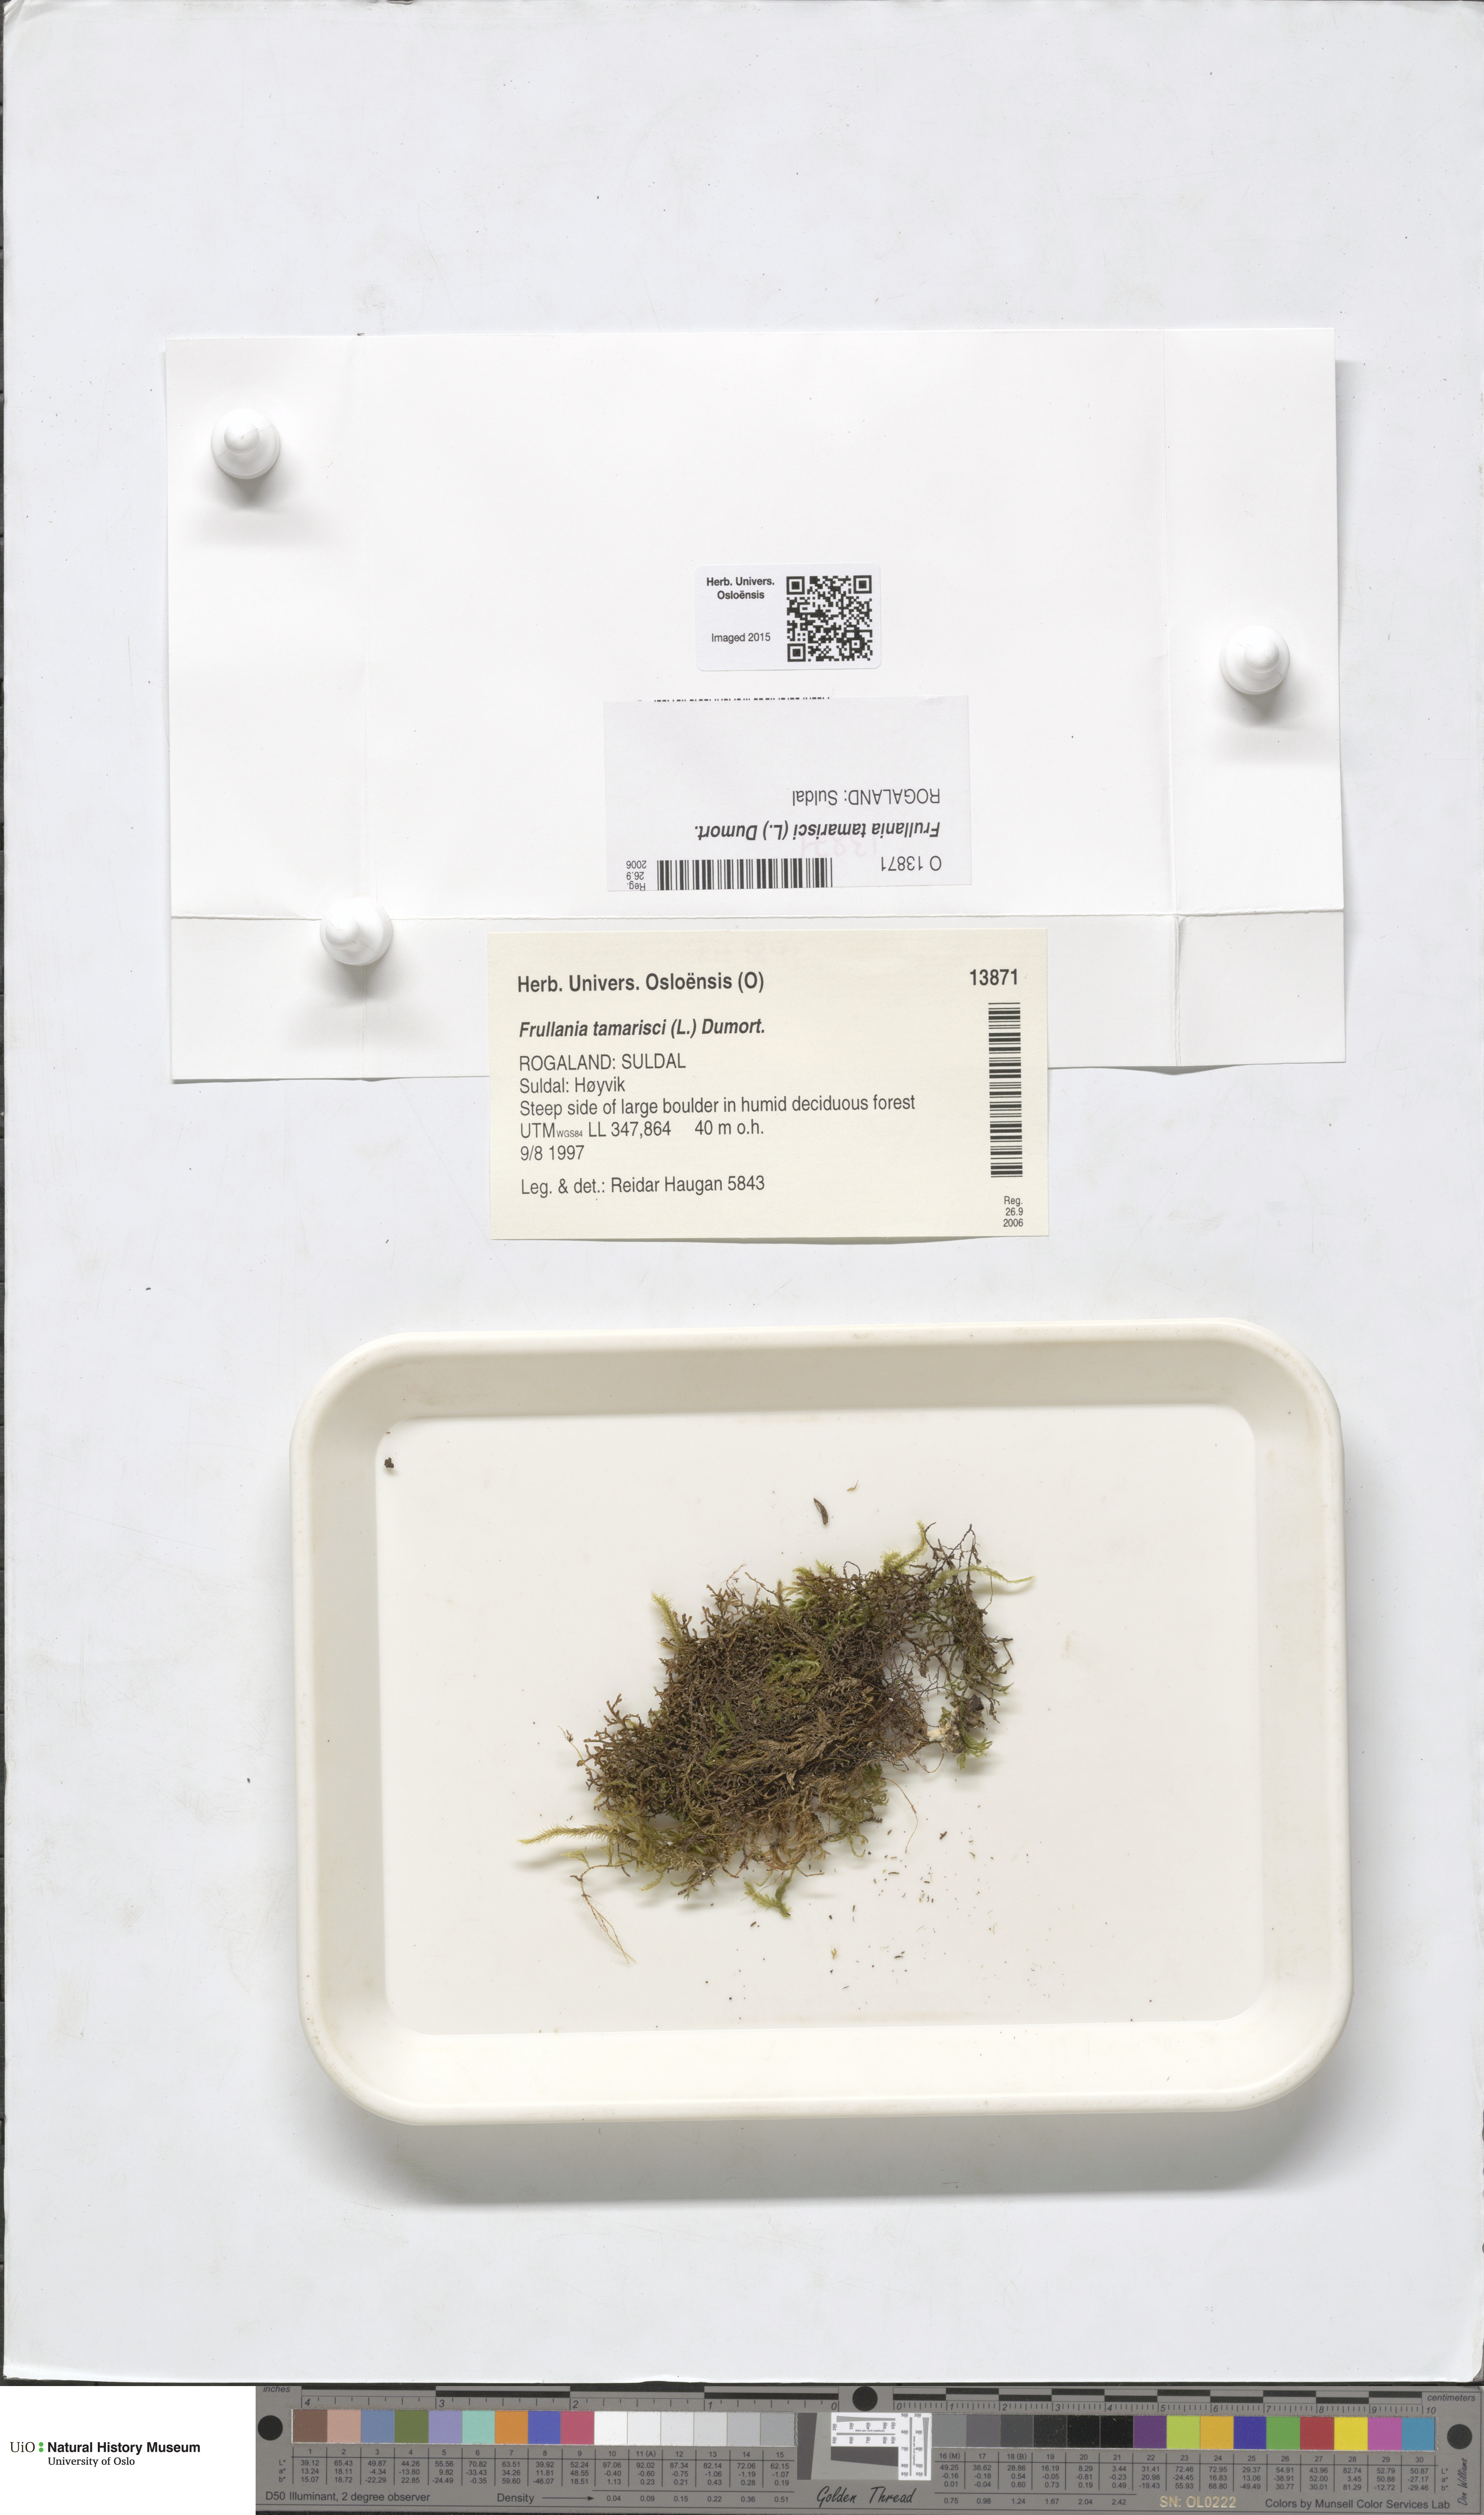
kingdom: Plantae
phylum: Marchantiophyta
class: Jungermanniopsida
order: Porellales
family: Frullaniaceae
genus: Frullania
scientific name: Frullania tamarisci
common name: Tamarisk scalewort
